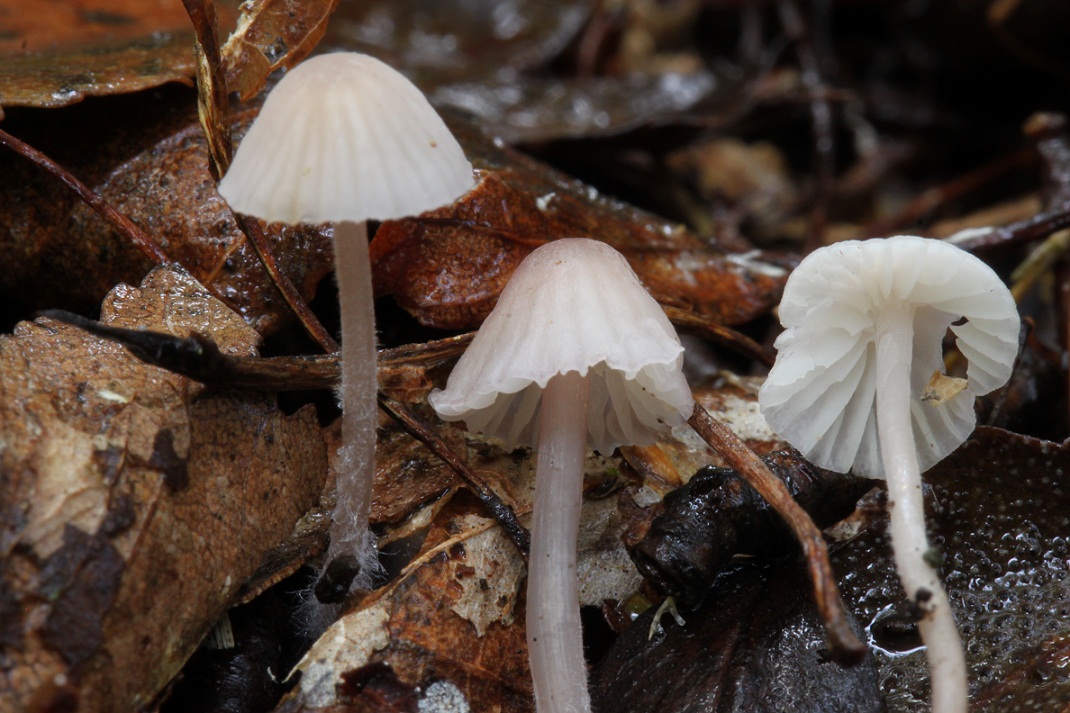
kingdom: Fungi
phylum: Basidiomycota
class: Agaricomycetes
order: Agaricales
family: Mycenaceae
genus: Mycena
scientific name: Mycena albidolilacea
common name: lyslilla huesvamp
